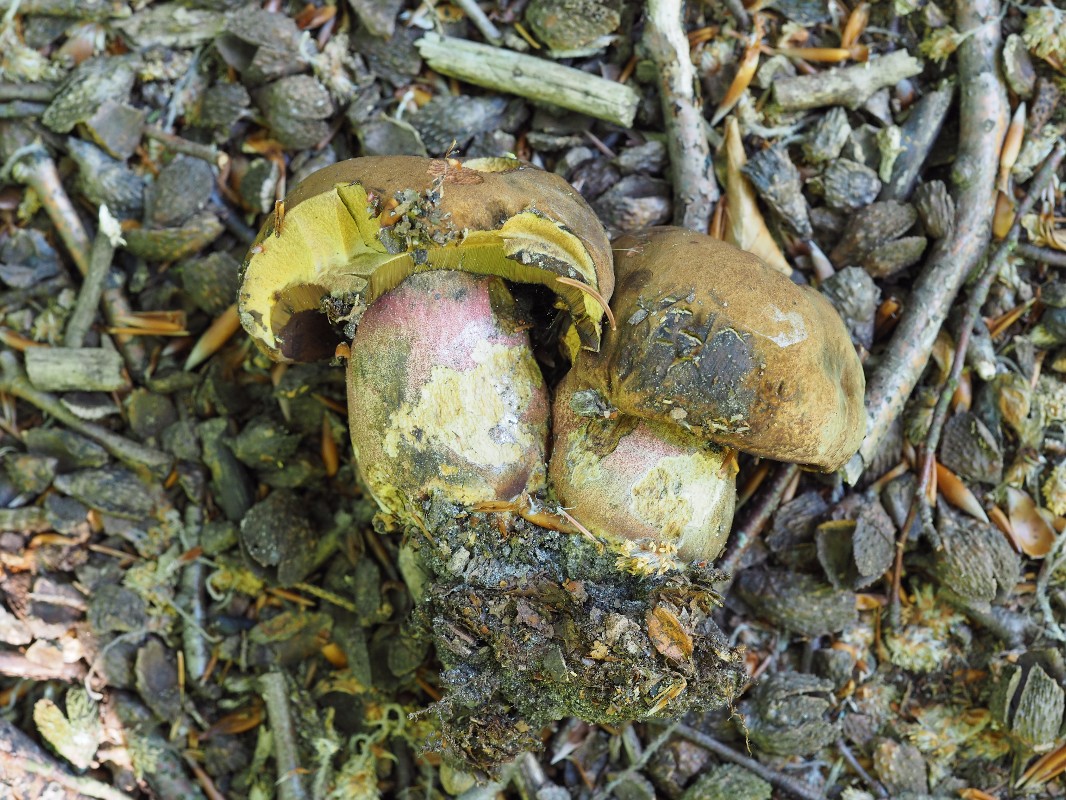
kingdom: Fungi
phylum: Basidiomycota
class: Agaricomycetes
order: Boletales
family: Boletaceae
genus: Neoboletus
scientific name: Neoboletus erythropus
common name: punktstokket indigorørhat
